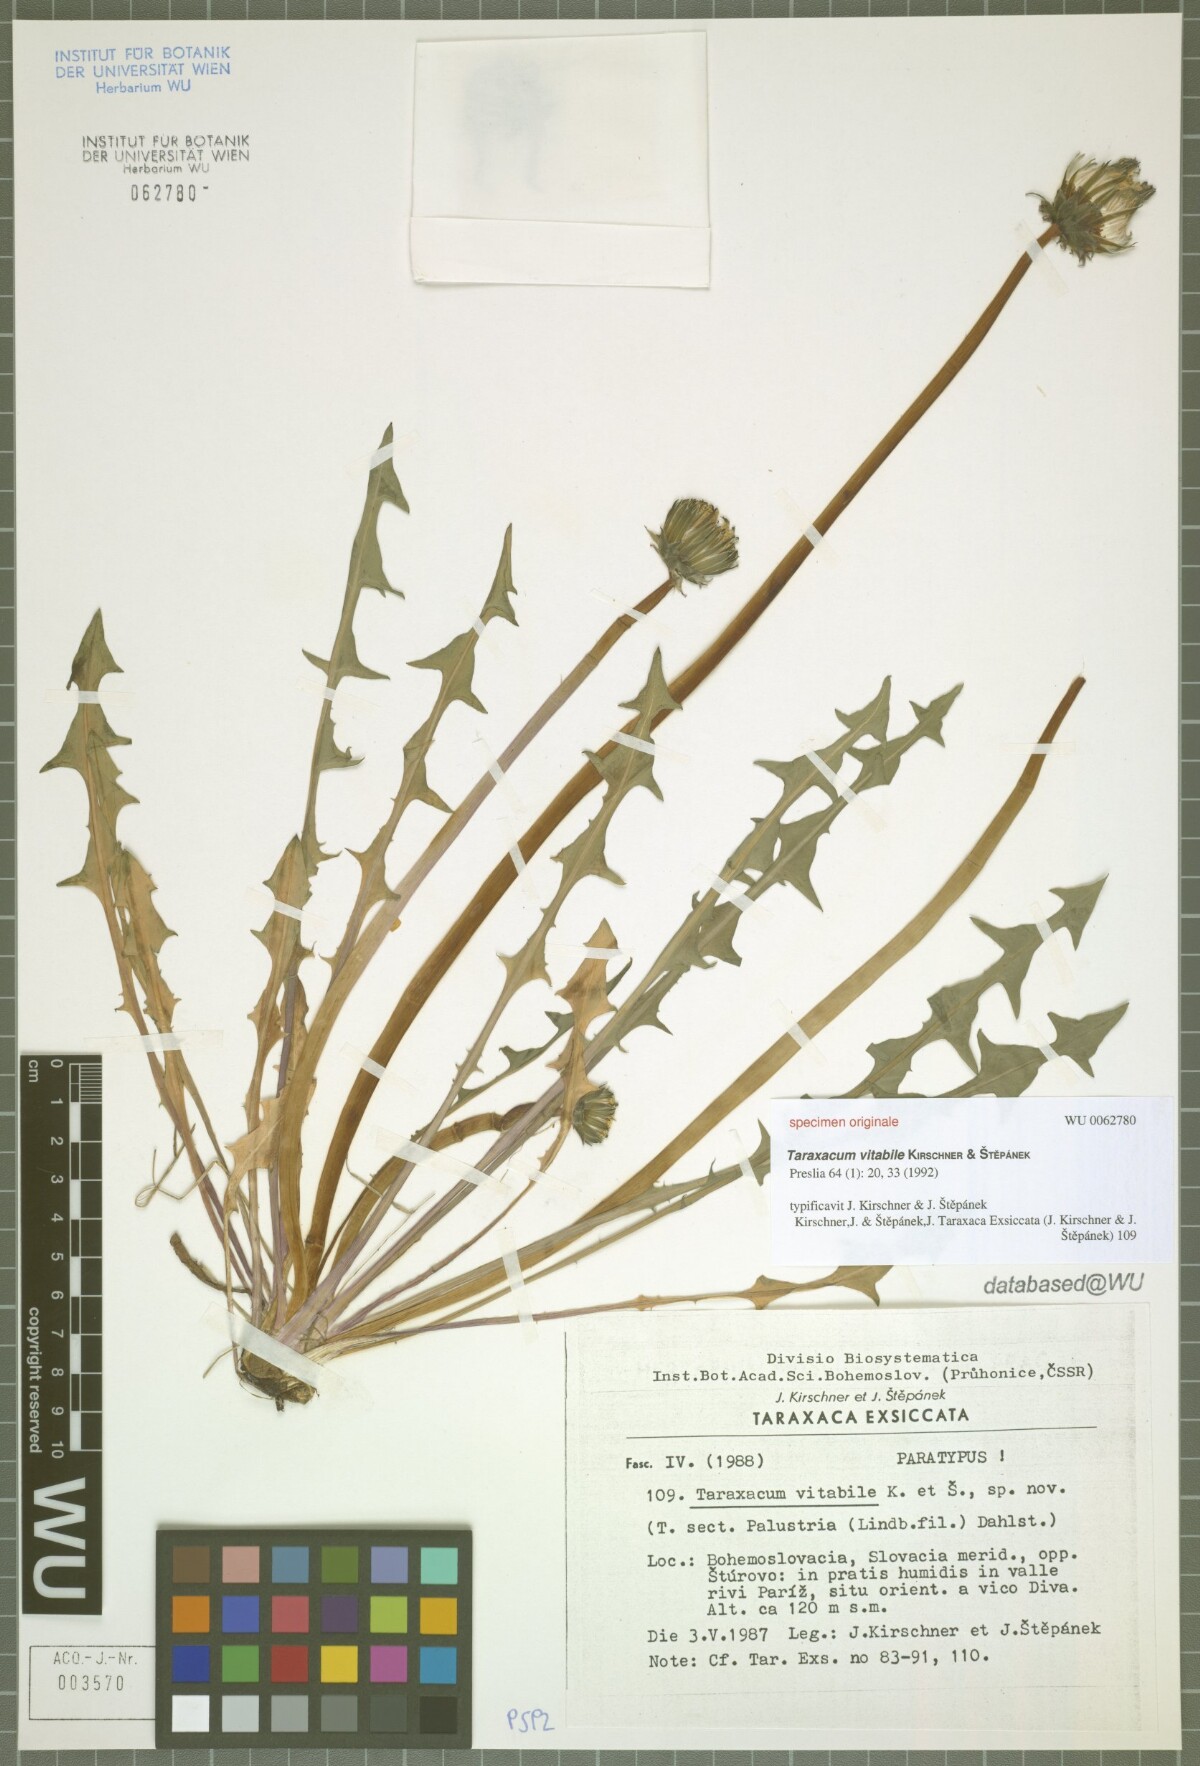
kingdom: Plantae
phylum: Tracheophyta
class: Magnoliopsida
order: Asterales
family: Asteraceae
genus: Taraxacum
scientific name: Taraxacum vindobonense
